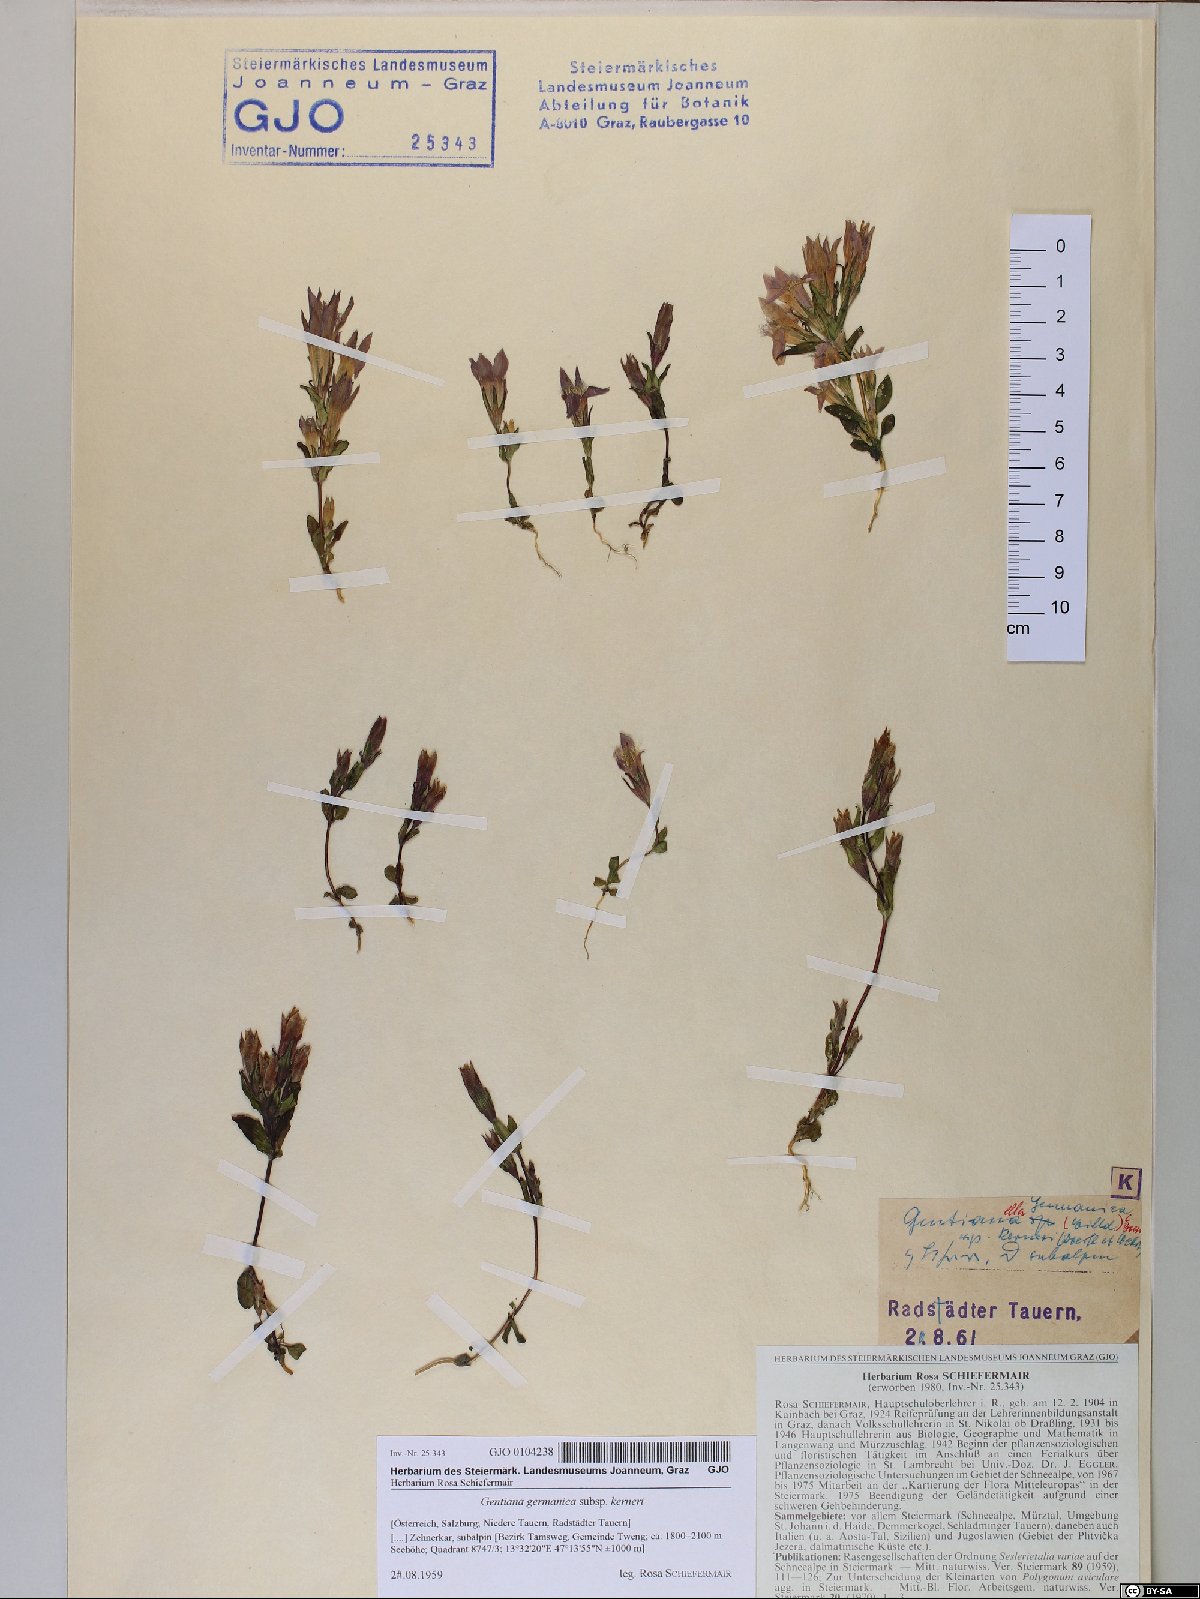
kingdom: Plantae
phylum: Tracheophyta
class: Magnoliopsida
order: Gentianales
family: Gentianaceae
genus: Gentianella
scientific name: Gentianella rhaetica
